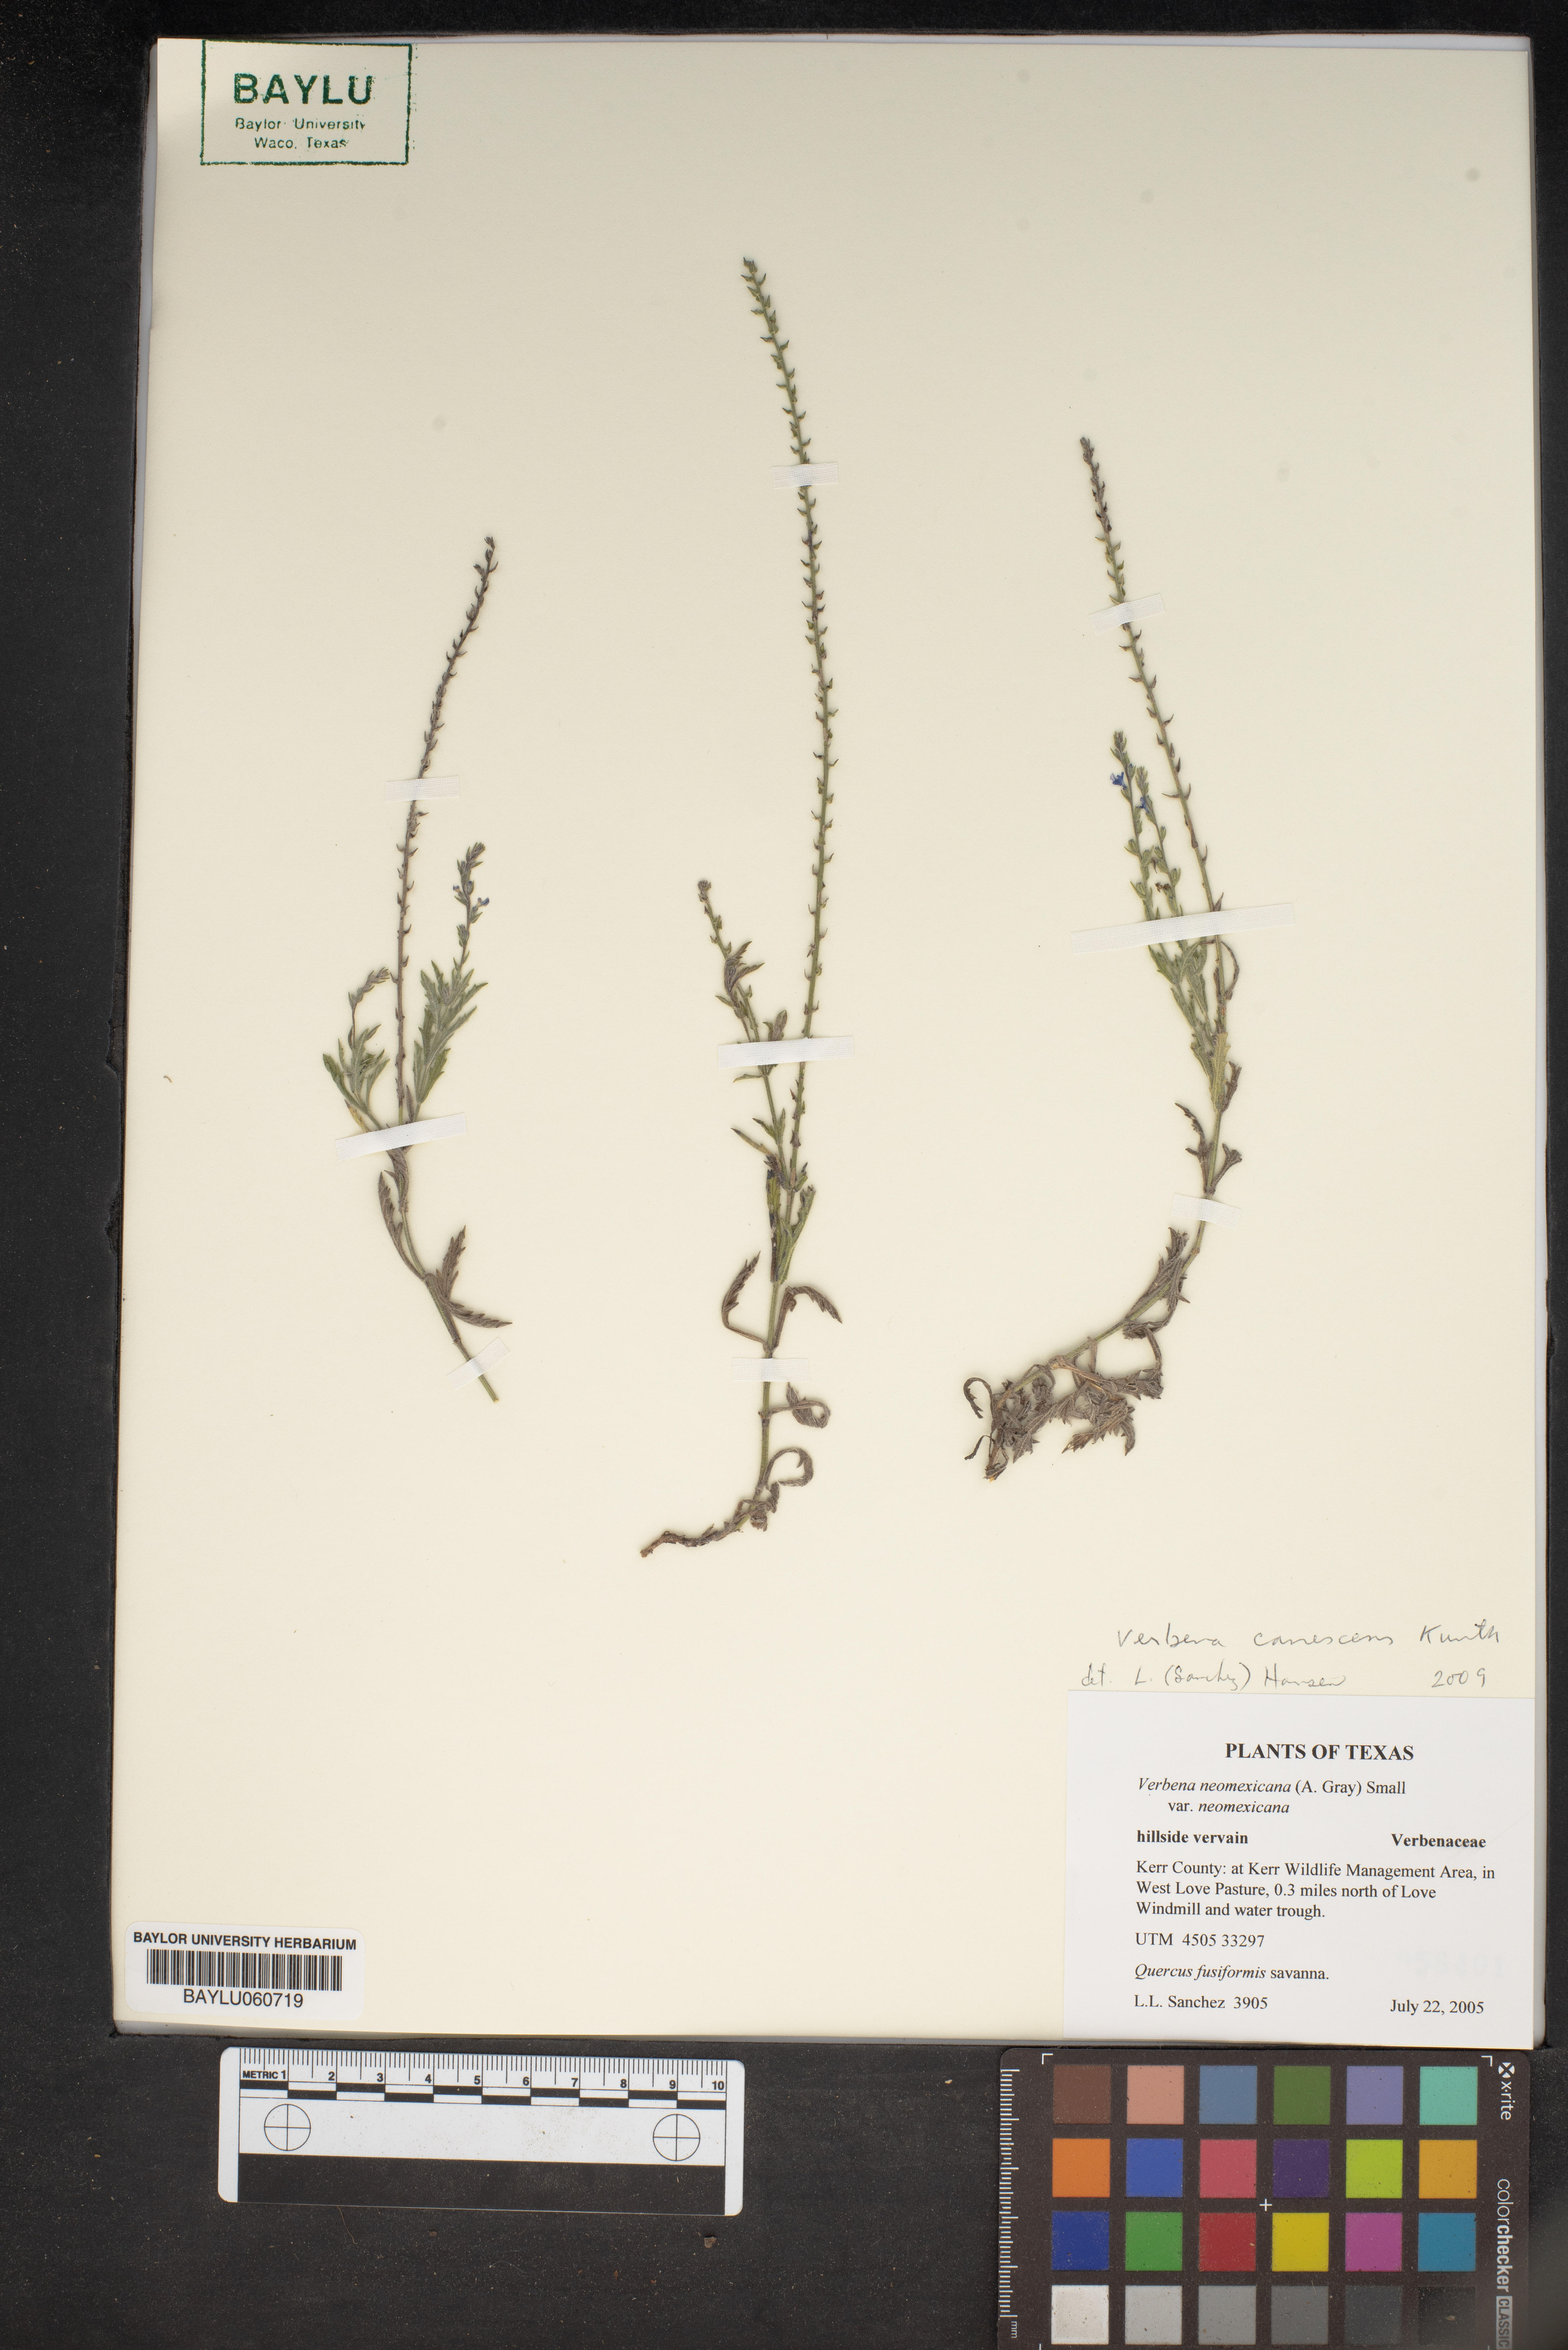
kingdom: Plantae
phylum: Tracheophyta
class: Magnoliopsida
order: Lamiales
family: Verbenaceae
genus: Verbena
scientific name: Verbena neomexicana
